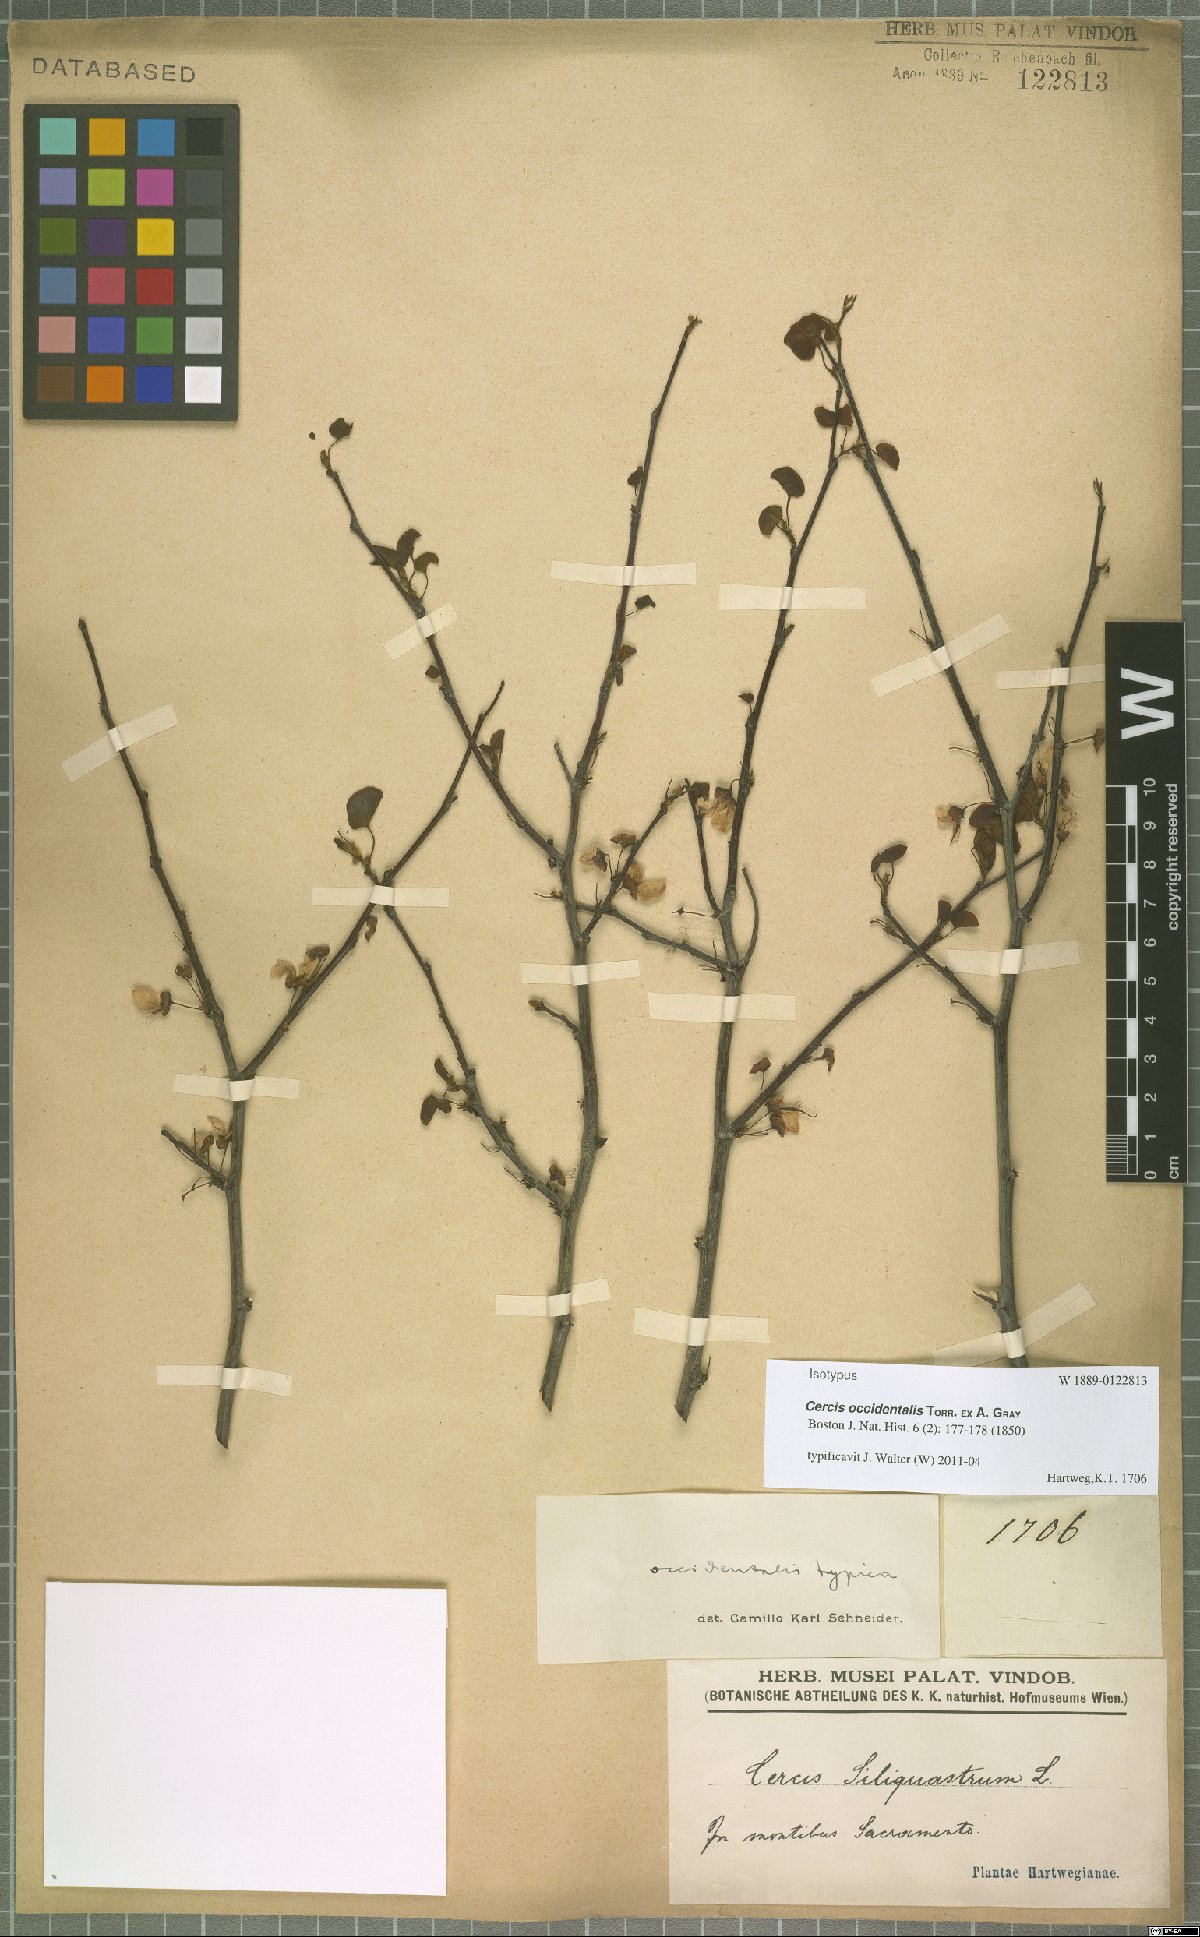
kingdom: Plantae
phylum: Tracheophyta
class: Magnoliopsida
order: Fabales
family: Fabaceae
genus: Cercis
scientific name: Cercis occidentalis
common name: California redbud
